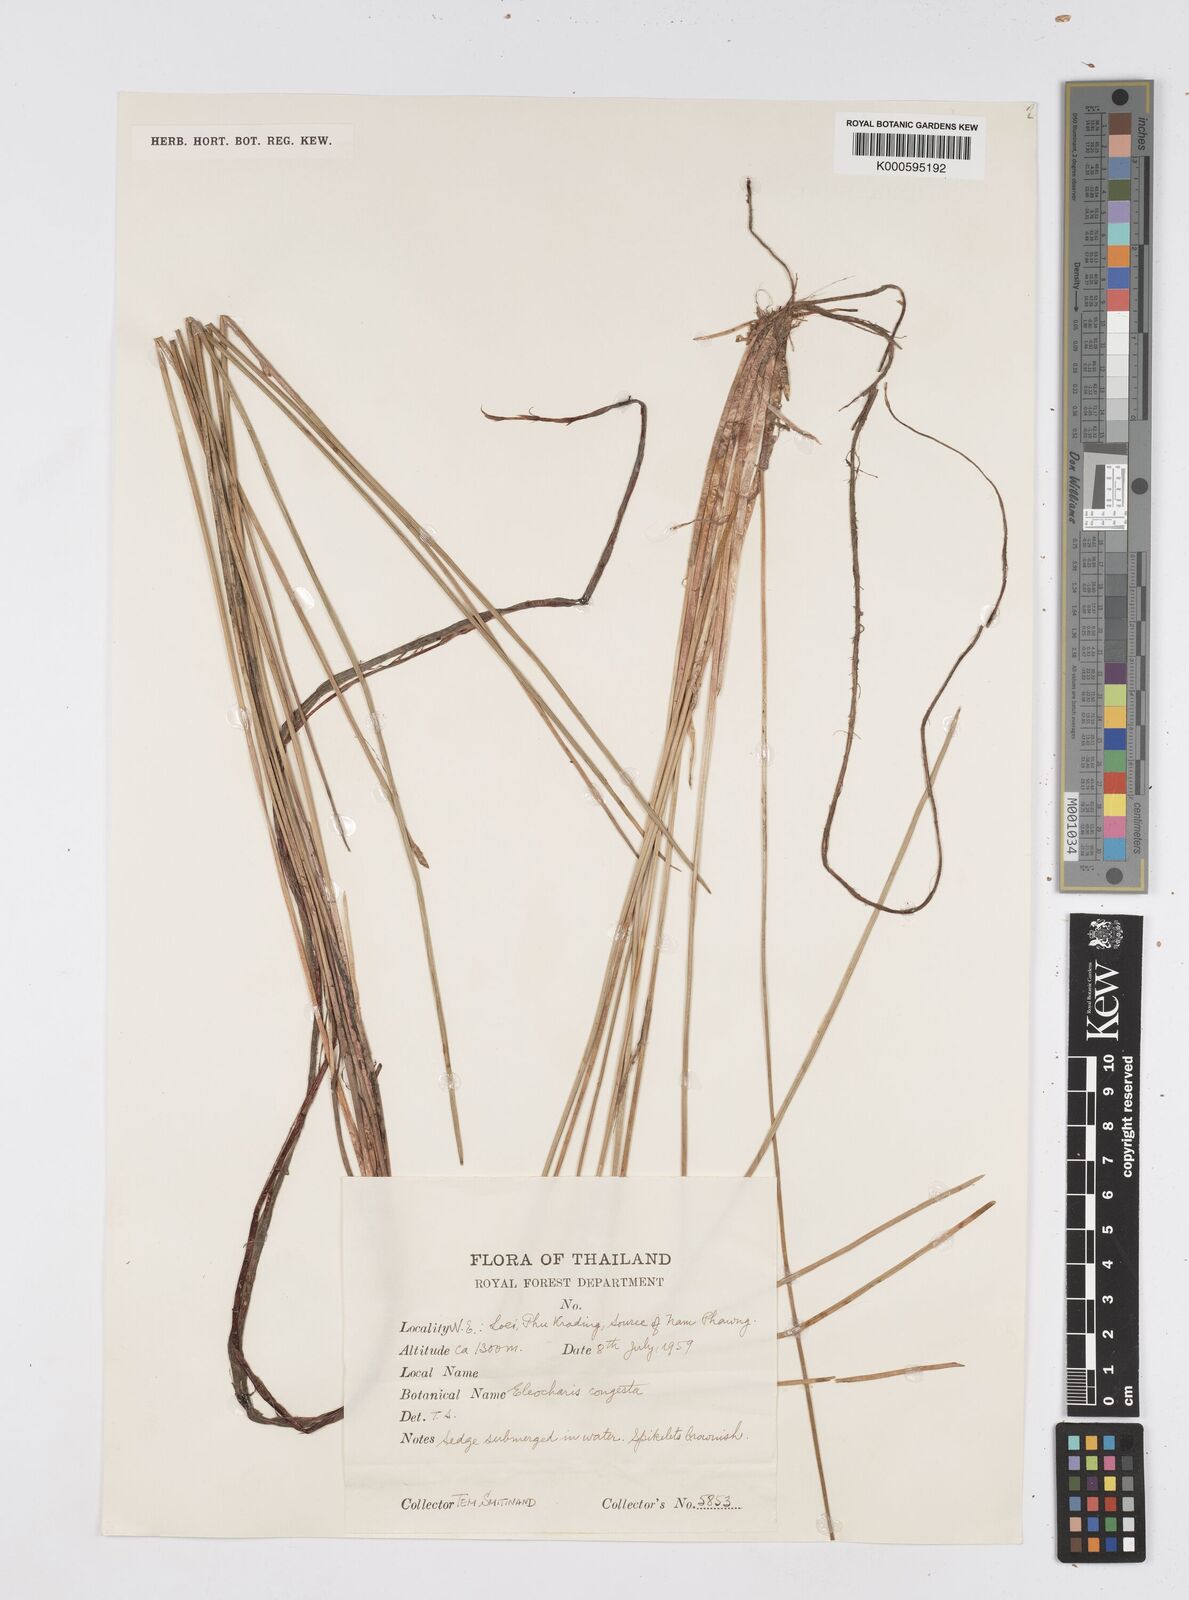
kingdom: Plantae
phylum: Tracheophyta
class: Liliopsida
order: Poales
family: Cyperaceae
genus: Eleocharis
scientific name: Eleocharis congesta
